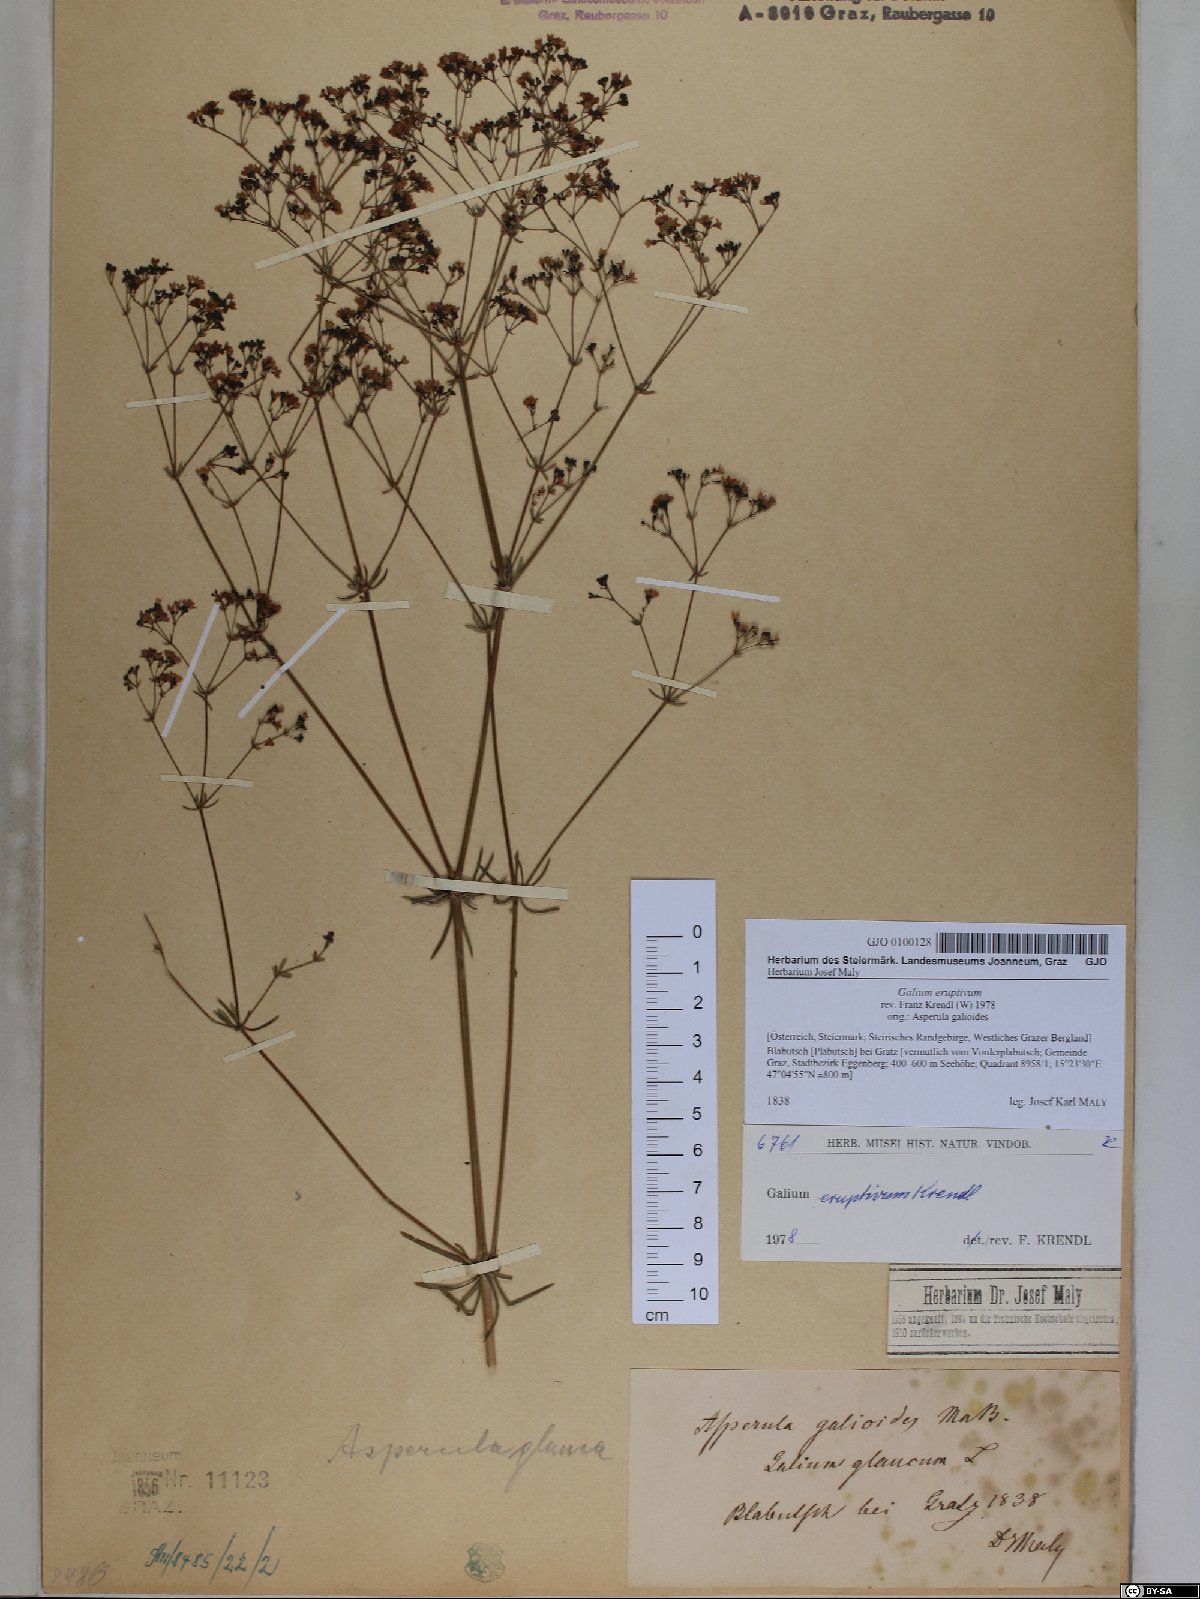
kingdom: Plantae
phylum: Tracheophyta
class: Magnoliopsida
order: Gentianales
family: Rubiaceae
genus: Galium
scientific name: Galium eruptivum
